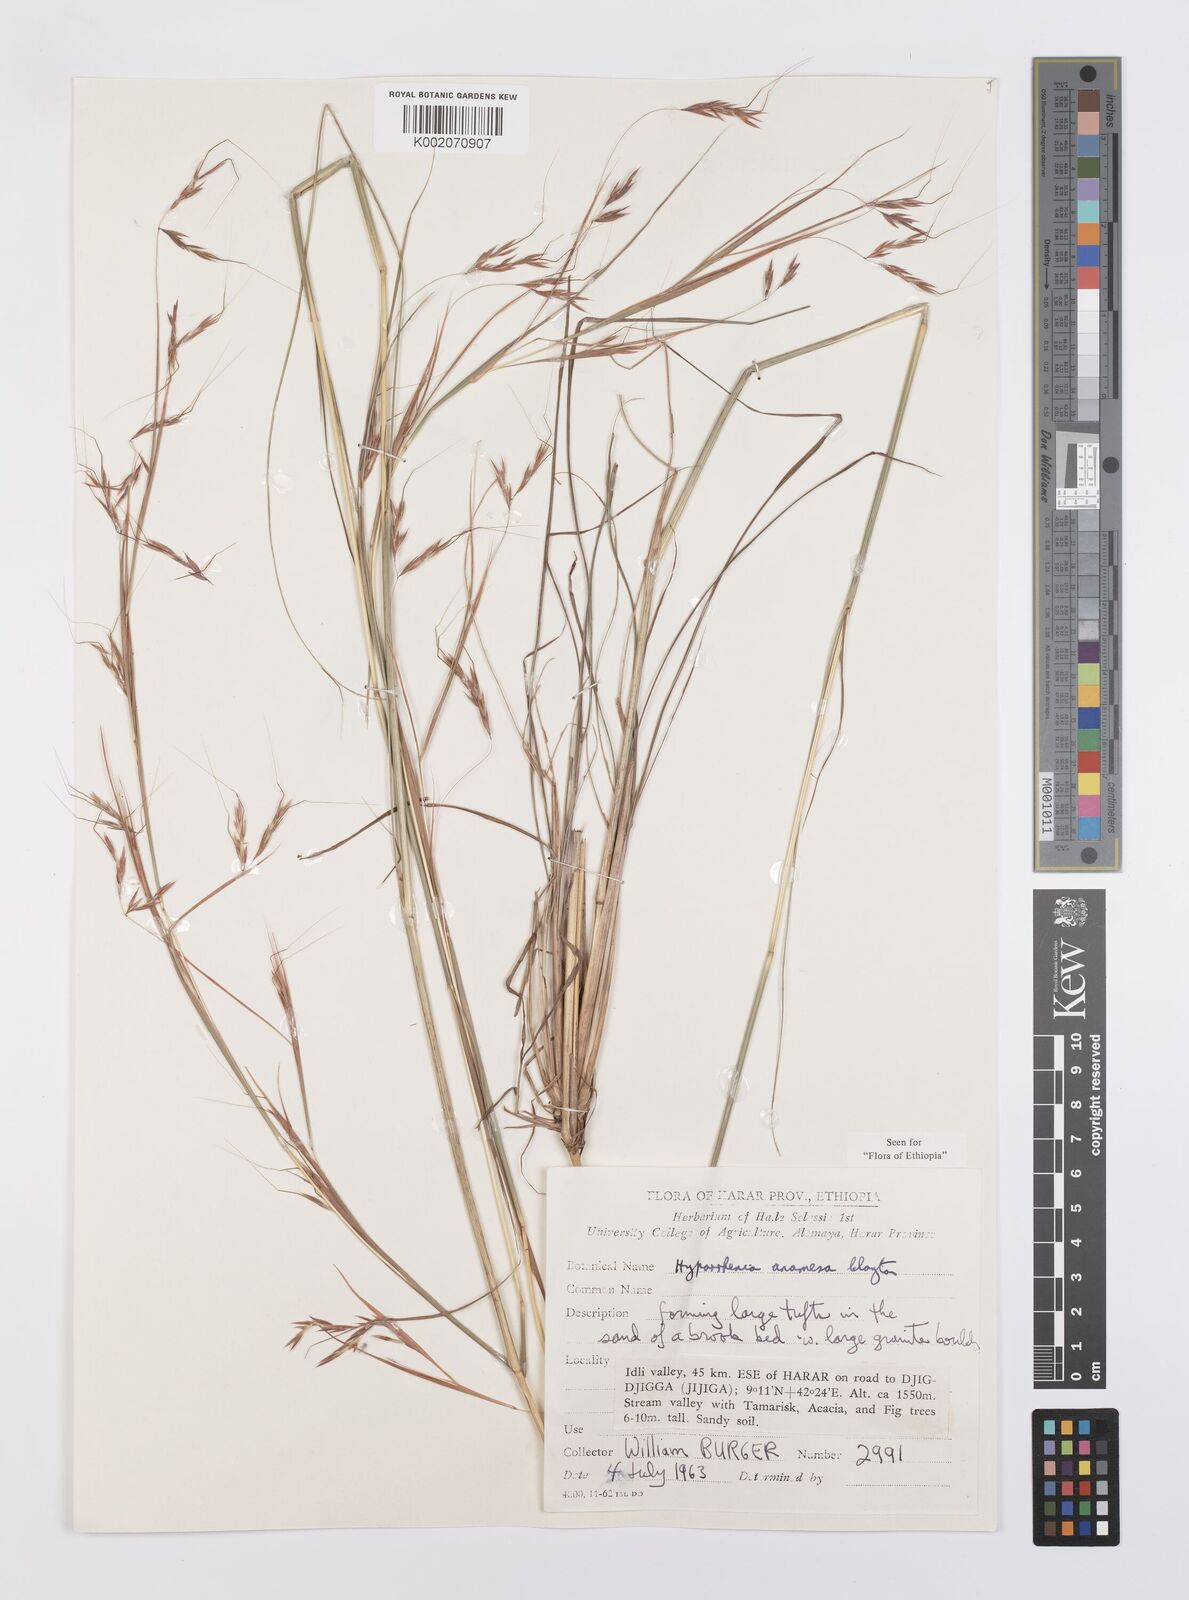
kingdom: Plantae
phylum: Tracheophyta
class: Liliopsida
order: Poales
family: Poaceae
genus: Hyparrhenia
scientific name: Hyparrhenia anamesa
